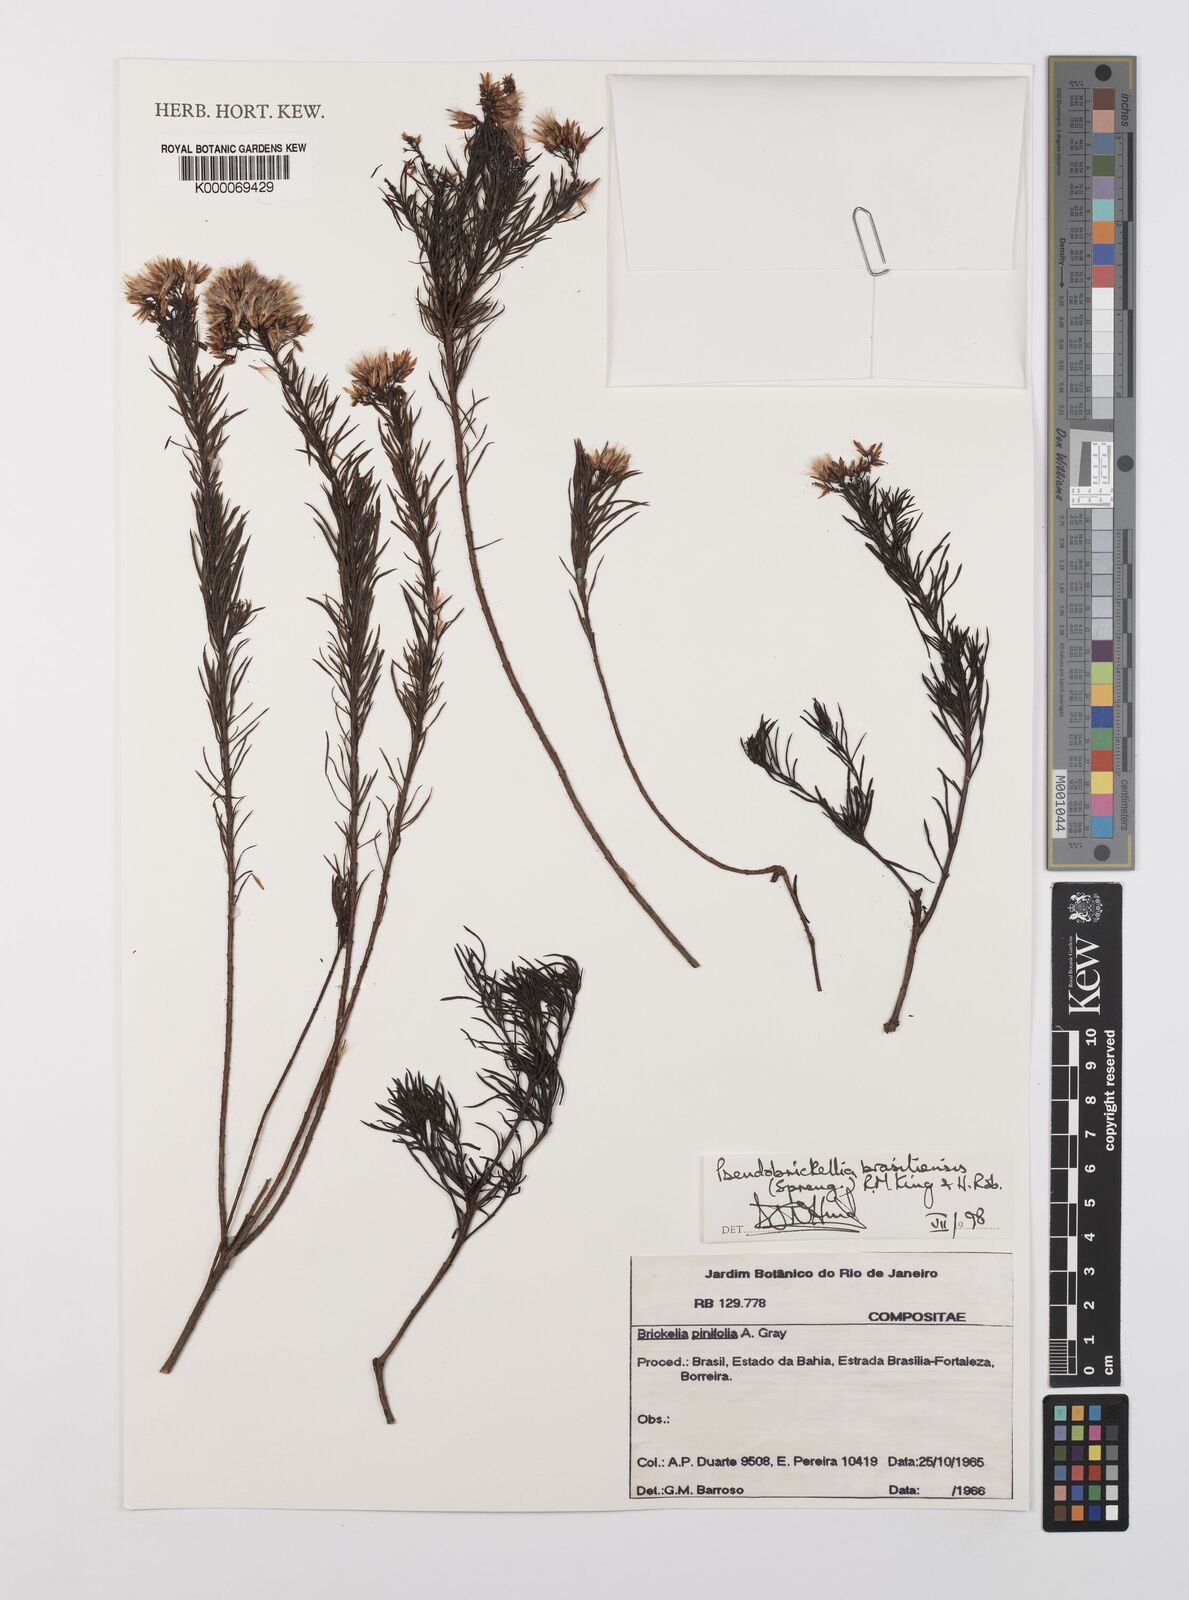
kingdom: Plantae
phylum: Tracheophyta
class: Magnoliopsida
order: Asterales
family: Asteraceae
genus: Pseudobrickellia
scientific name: Pseudobrickellia brasiliensis
